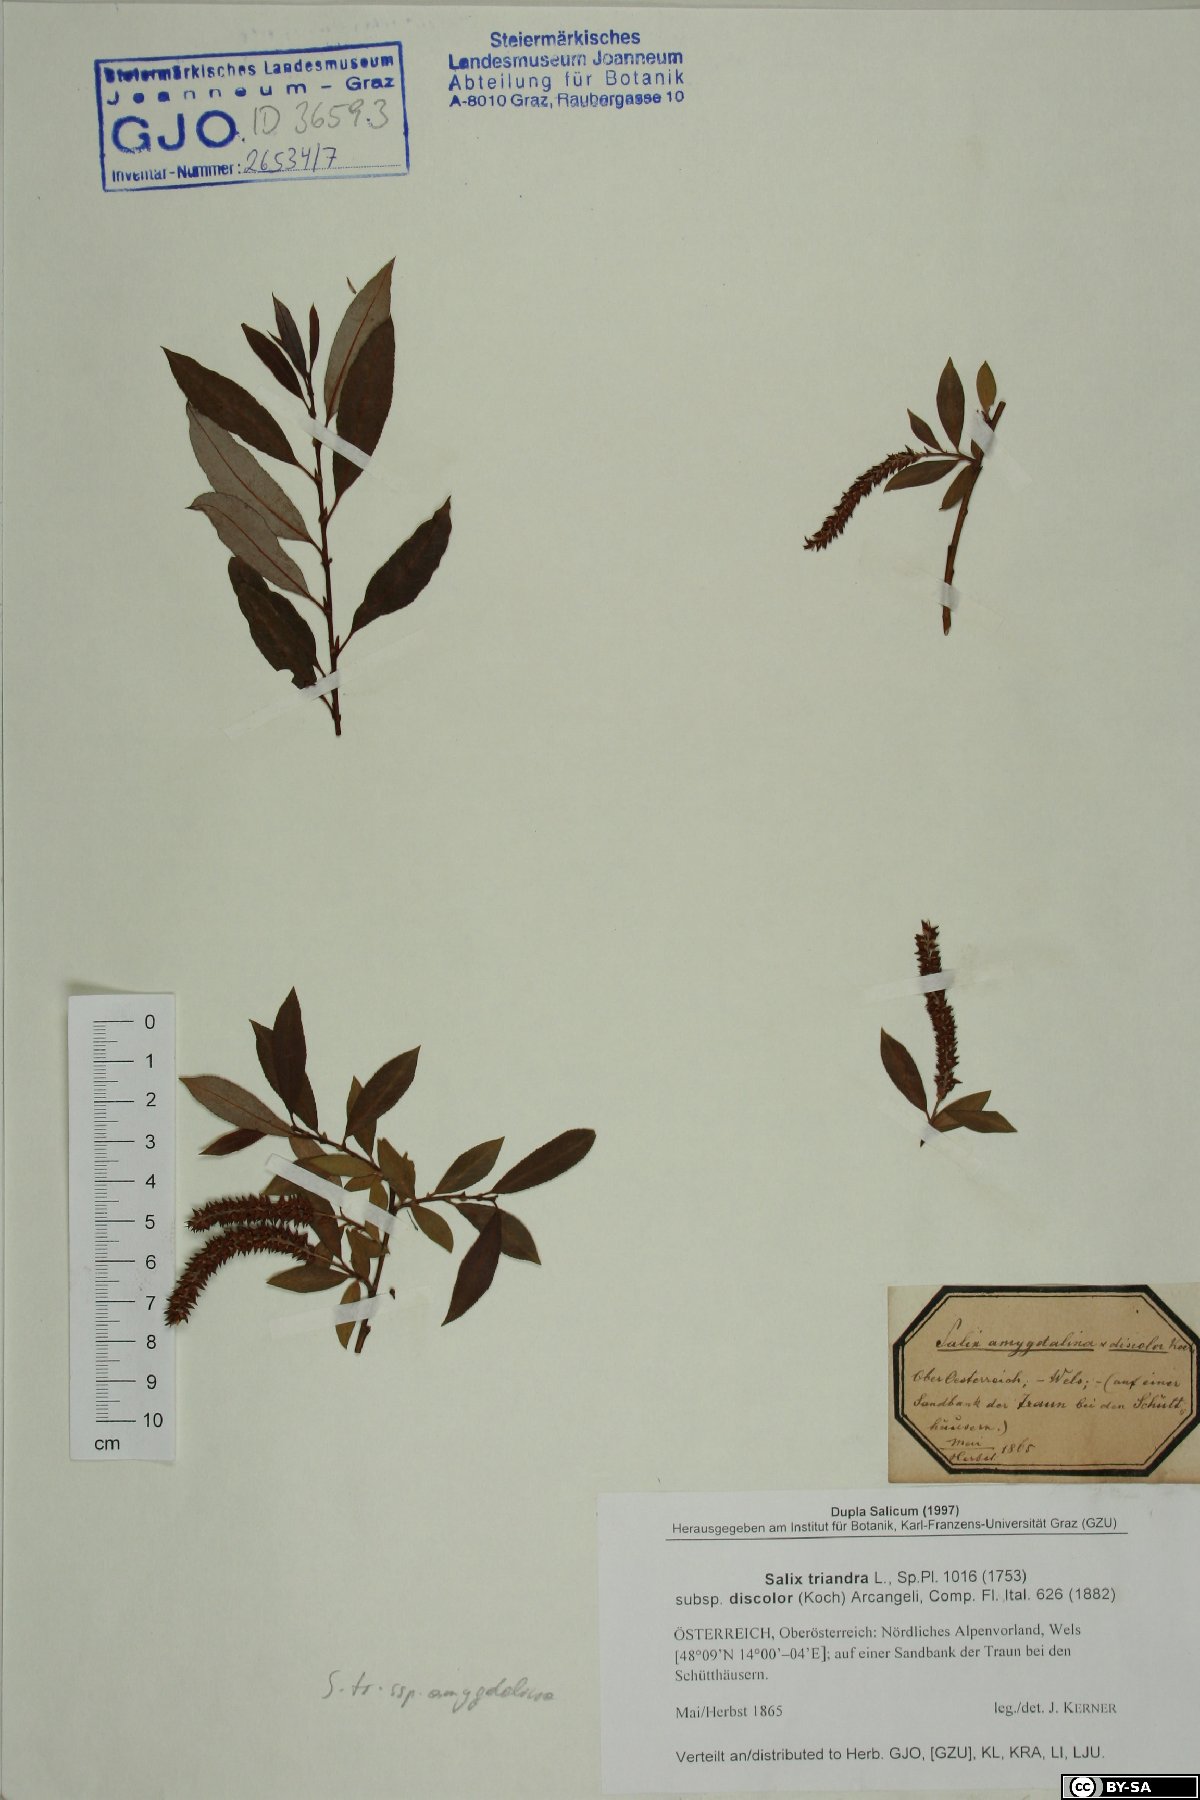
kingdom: Plantae
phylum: Tracheophyta
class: Magnoliopsida
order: Malpighiales
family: Salicaceae
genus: Salix
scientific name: Salix triandra
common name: Almond willow
